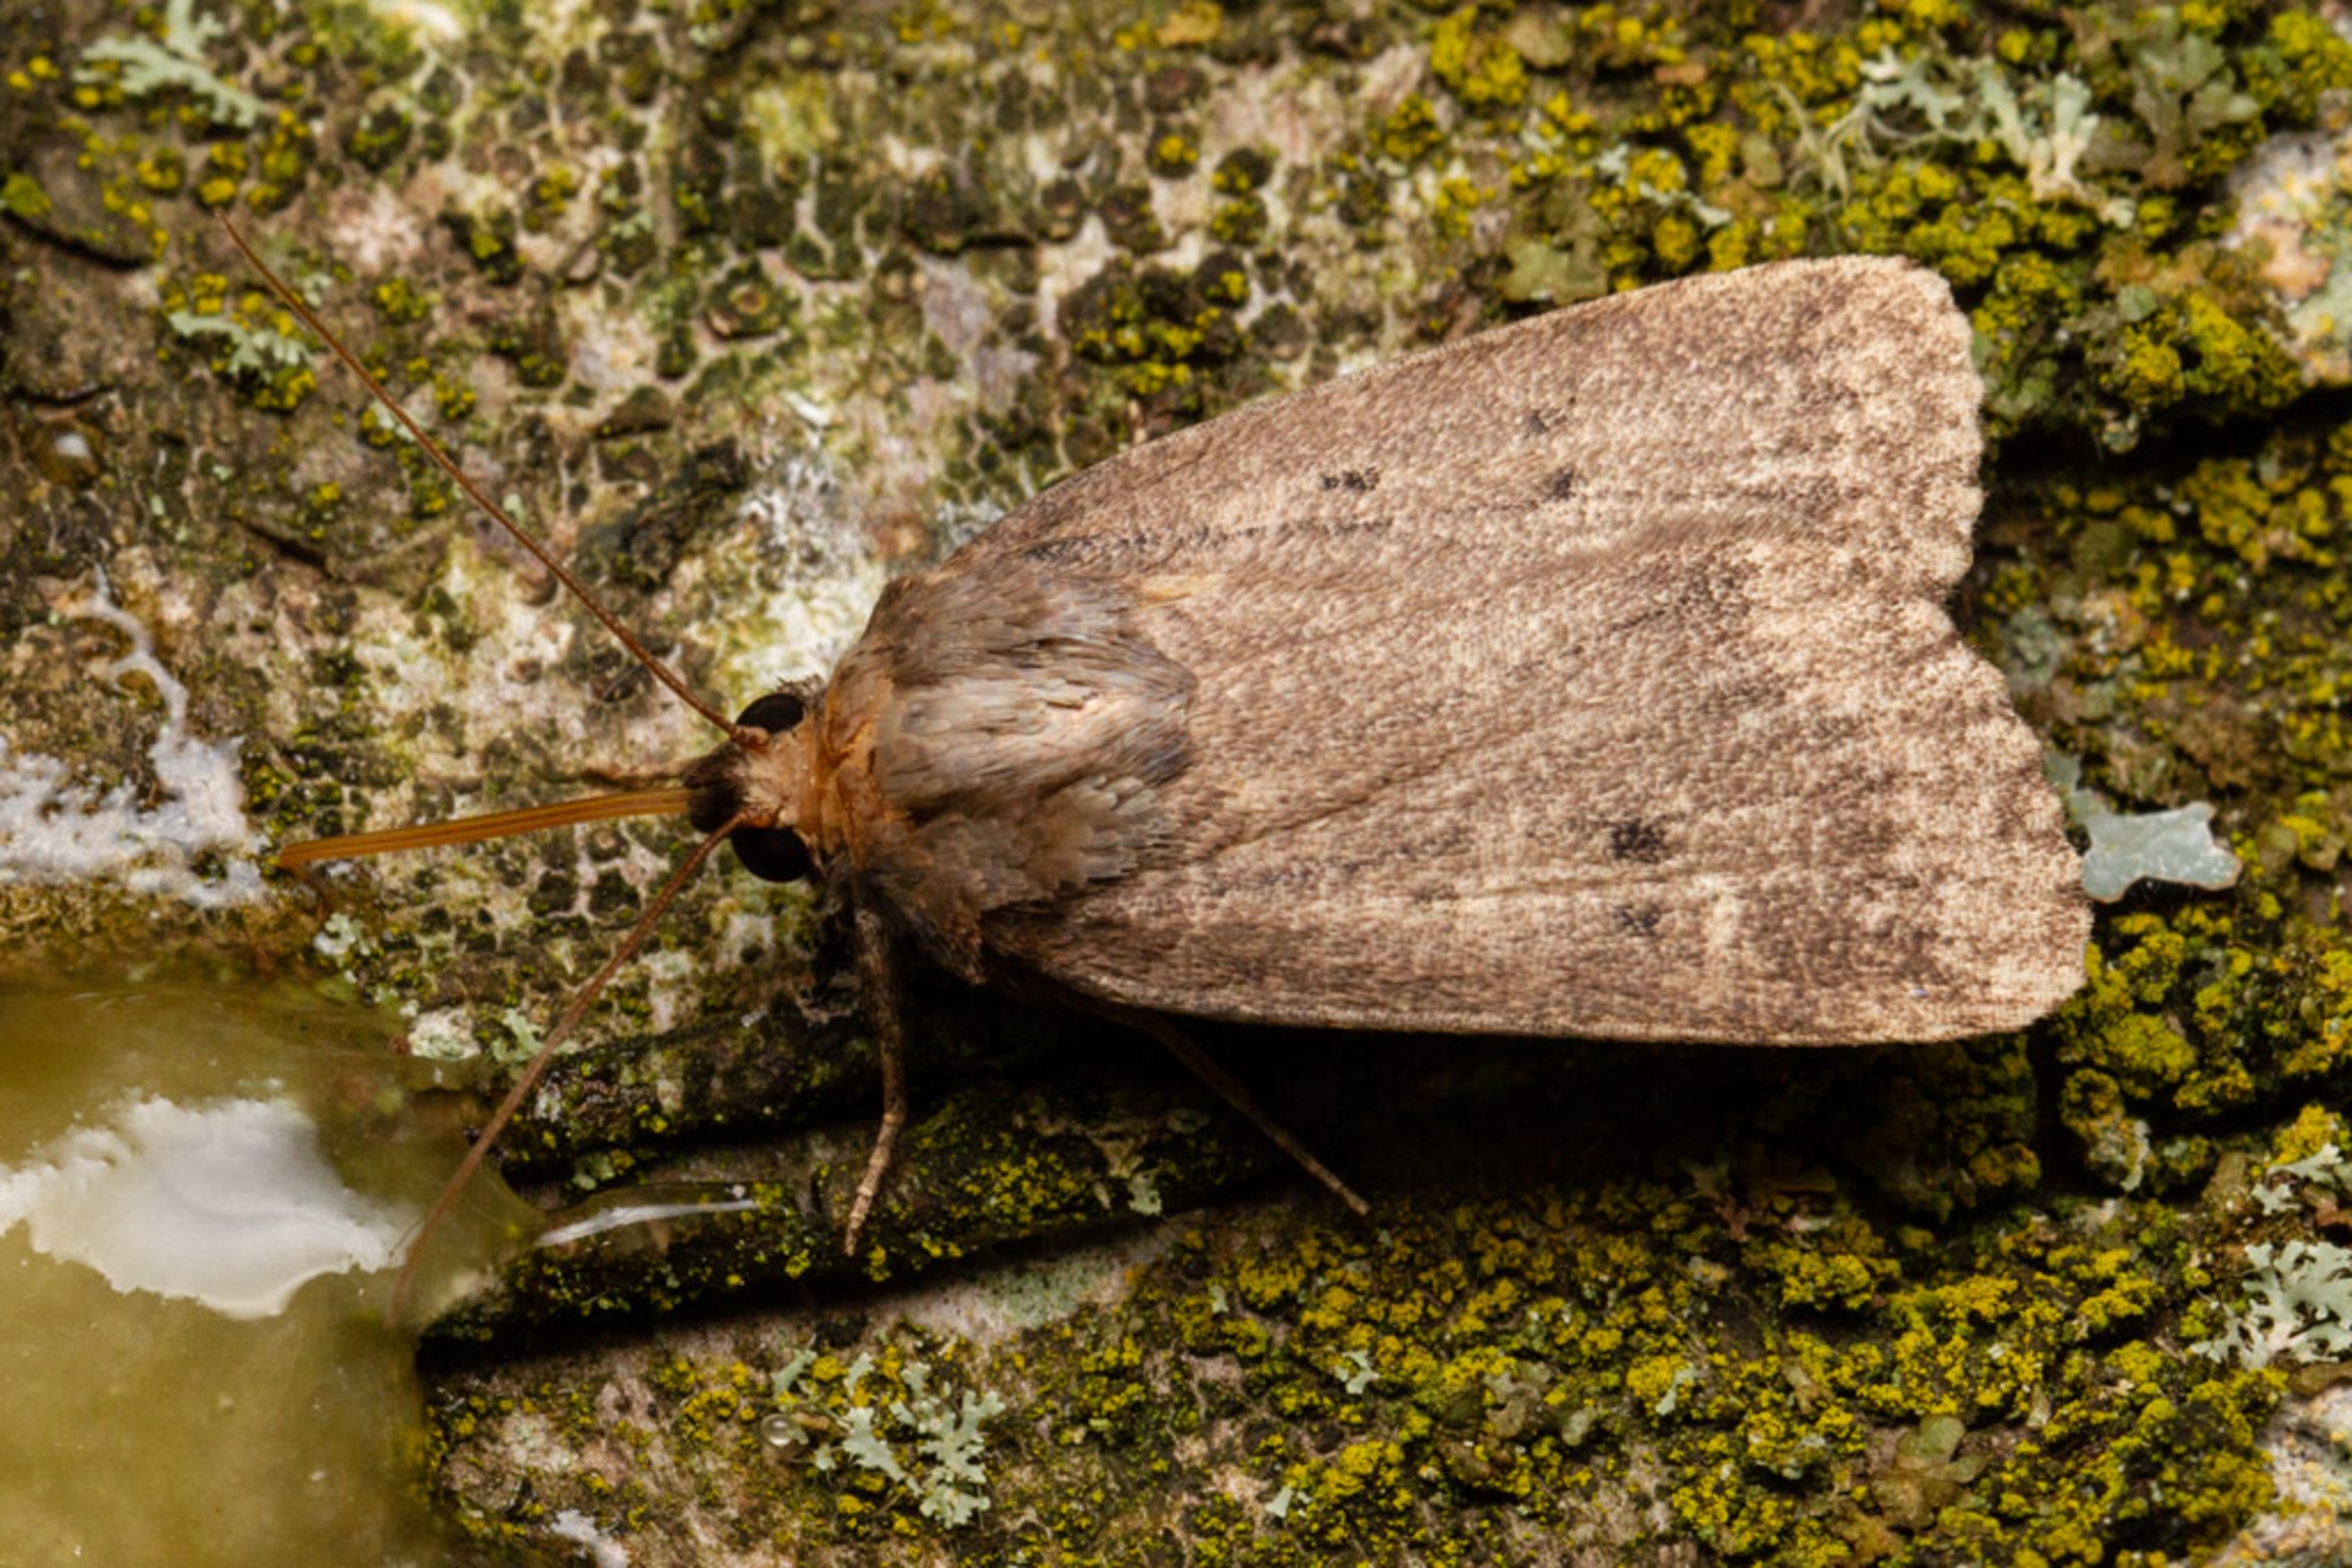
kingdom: Animalia
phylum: Arthropoda
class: Insecta
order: Lepidoptera
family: Noctuidae
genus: Amphipyra
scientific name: Amphipyra tragopoginis
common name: Blyantsugle
